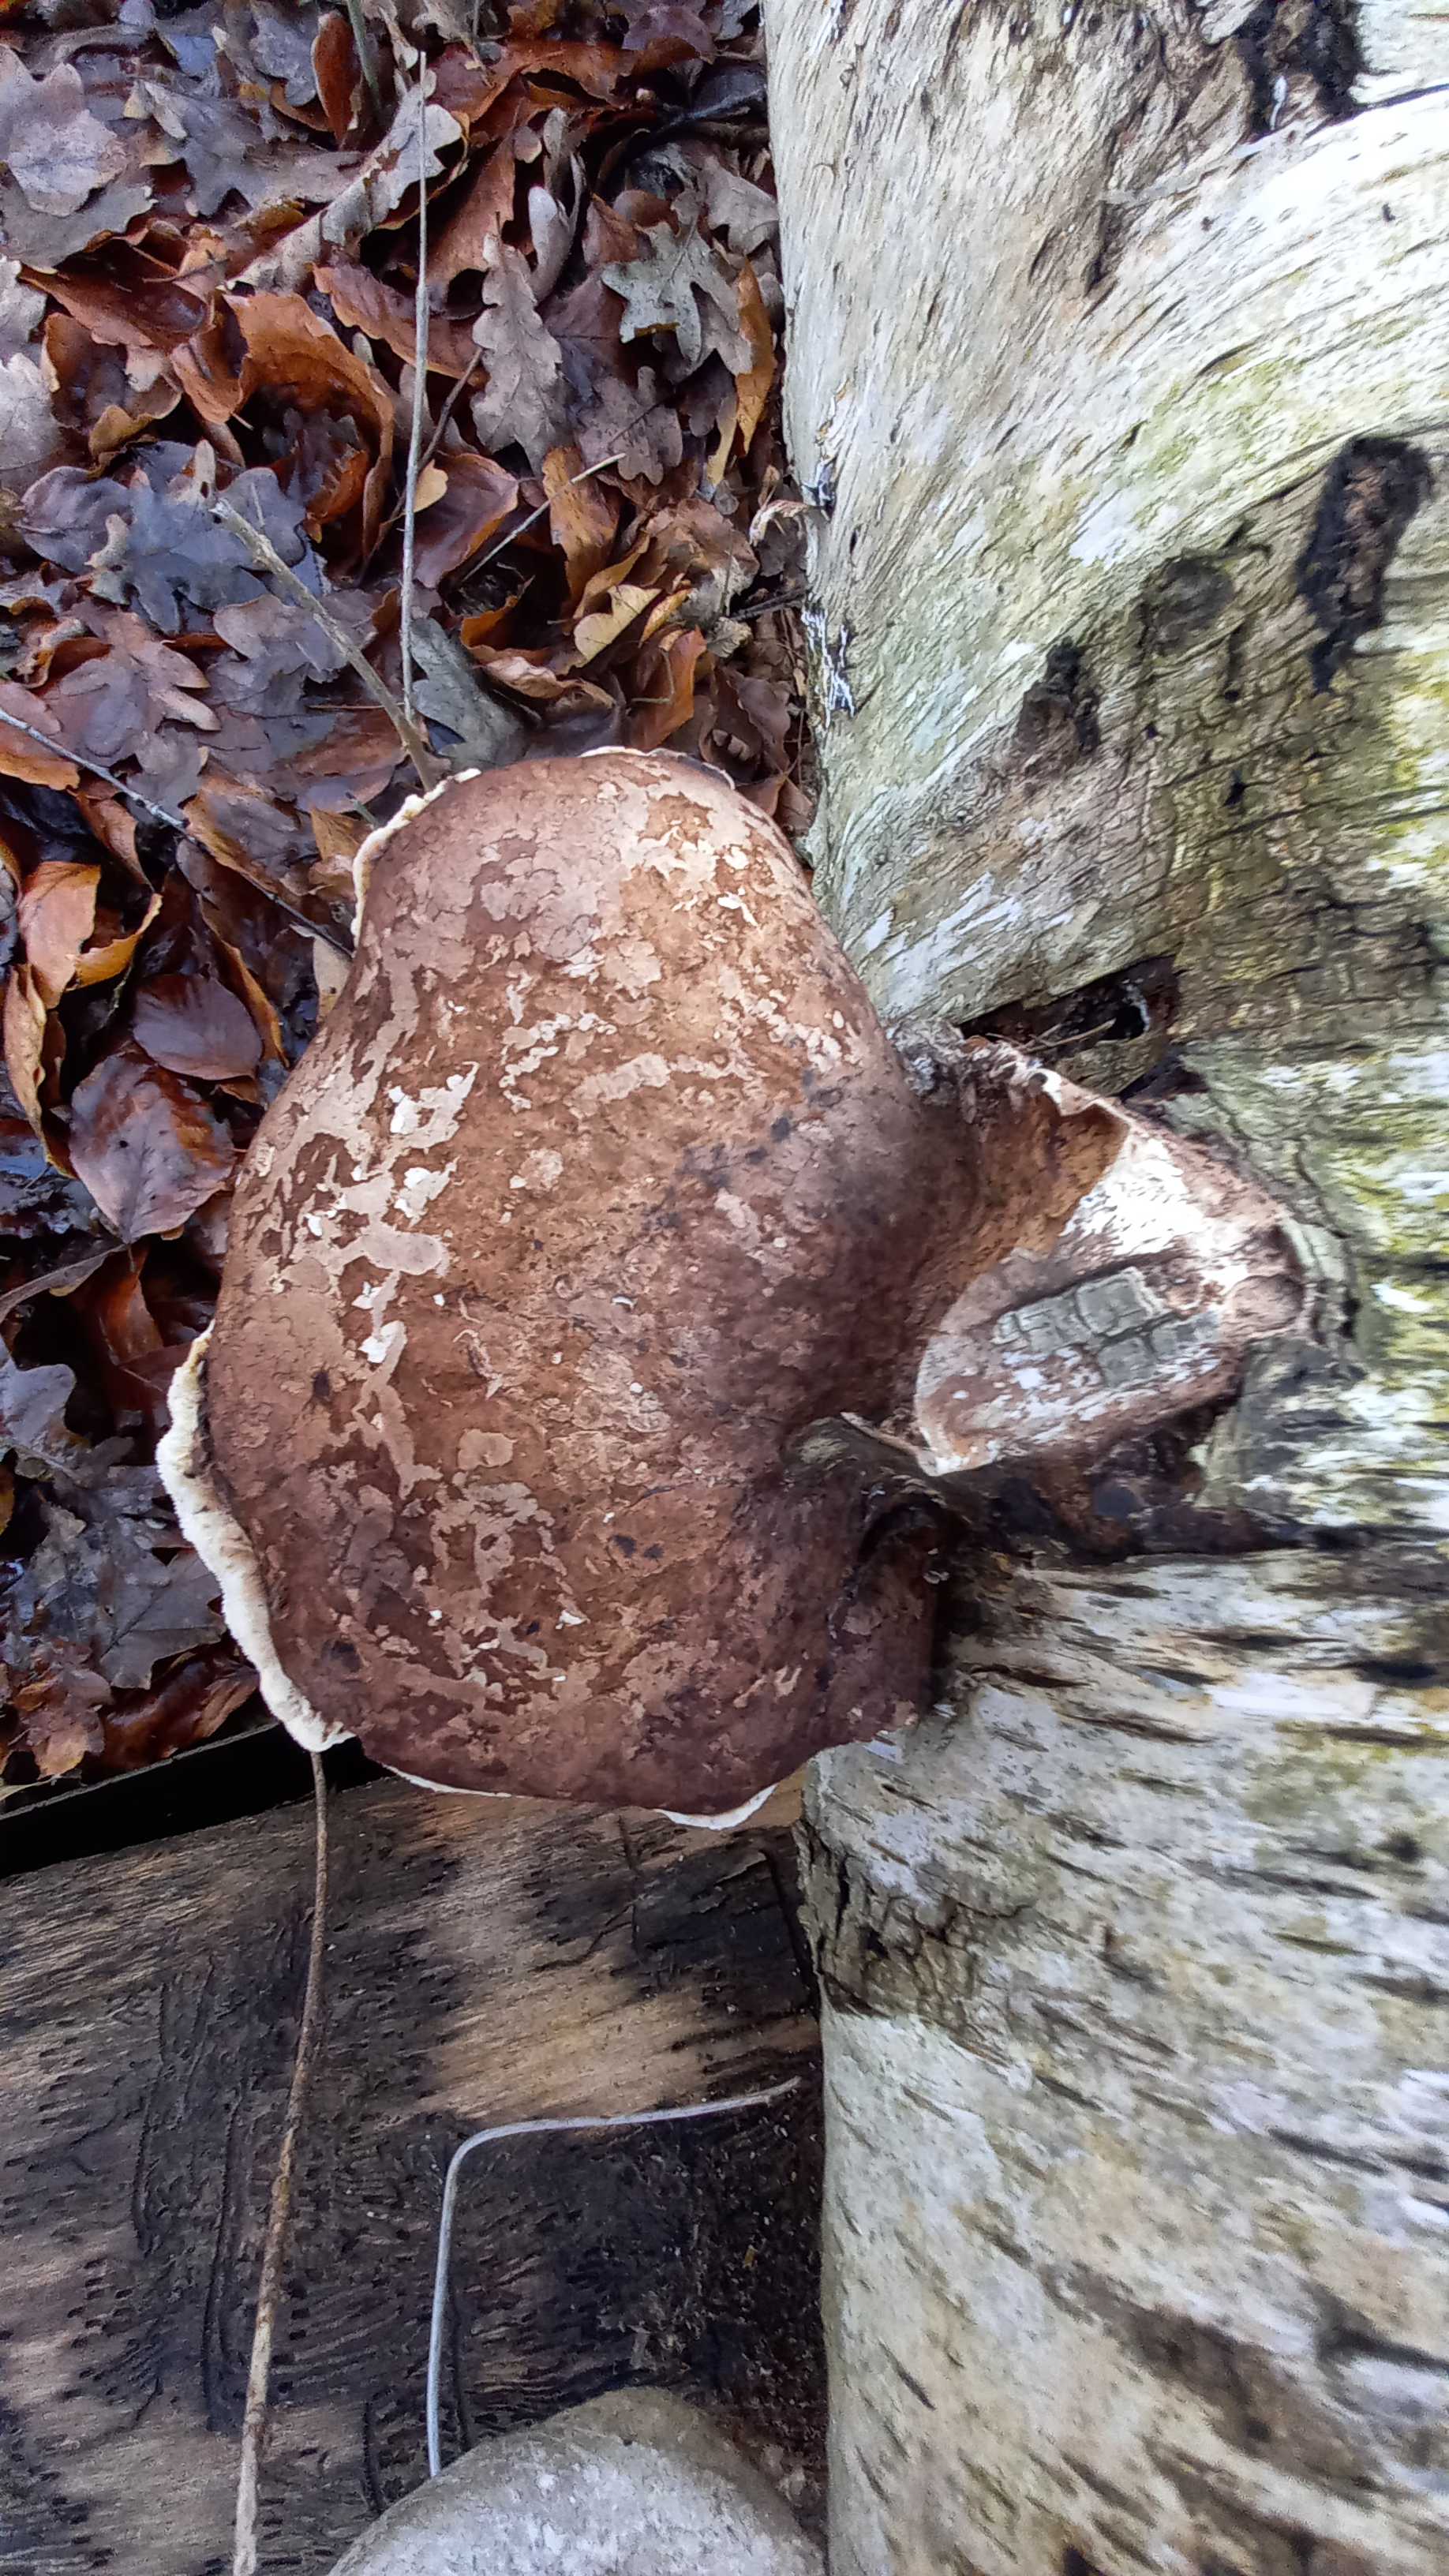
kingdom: Fungi
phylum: Basidiomycota
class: Agaricomycetes
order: Polyporales
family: Fomitopsidaceae
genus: Fomitopsis
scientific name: Fomitopsis betulina
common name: birkeporesvamp
